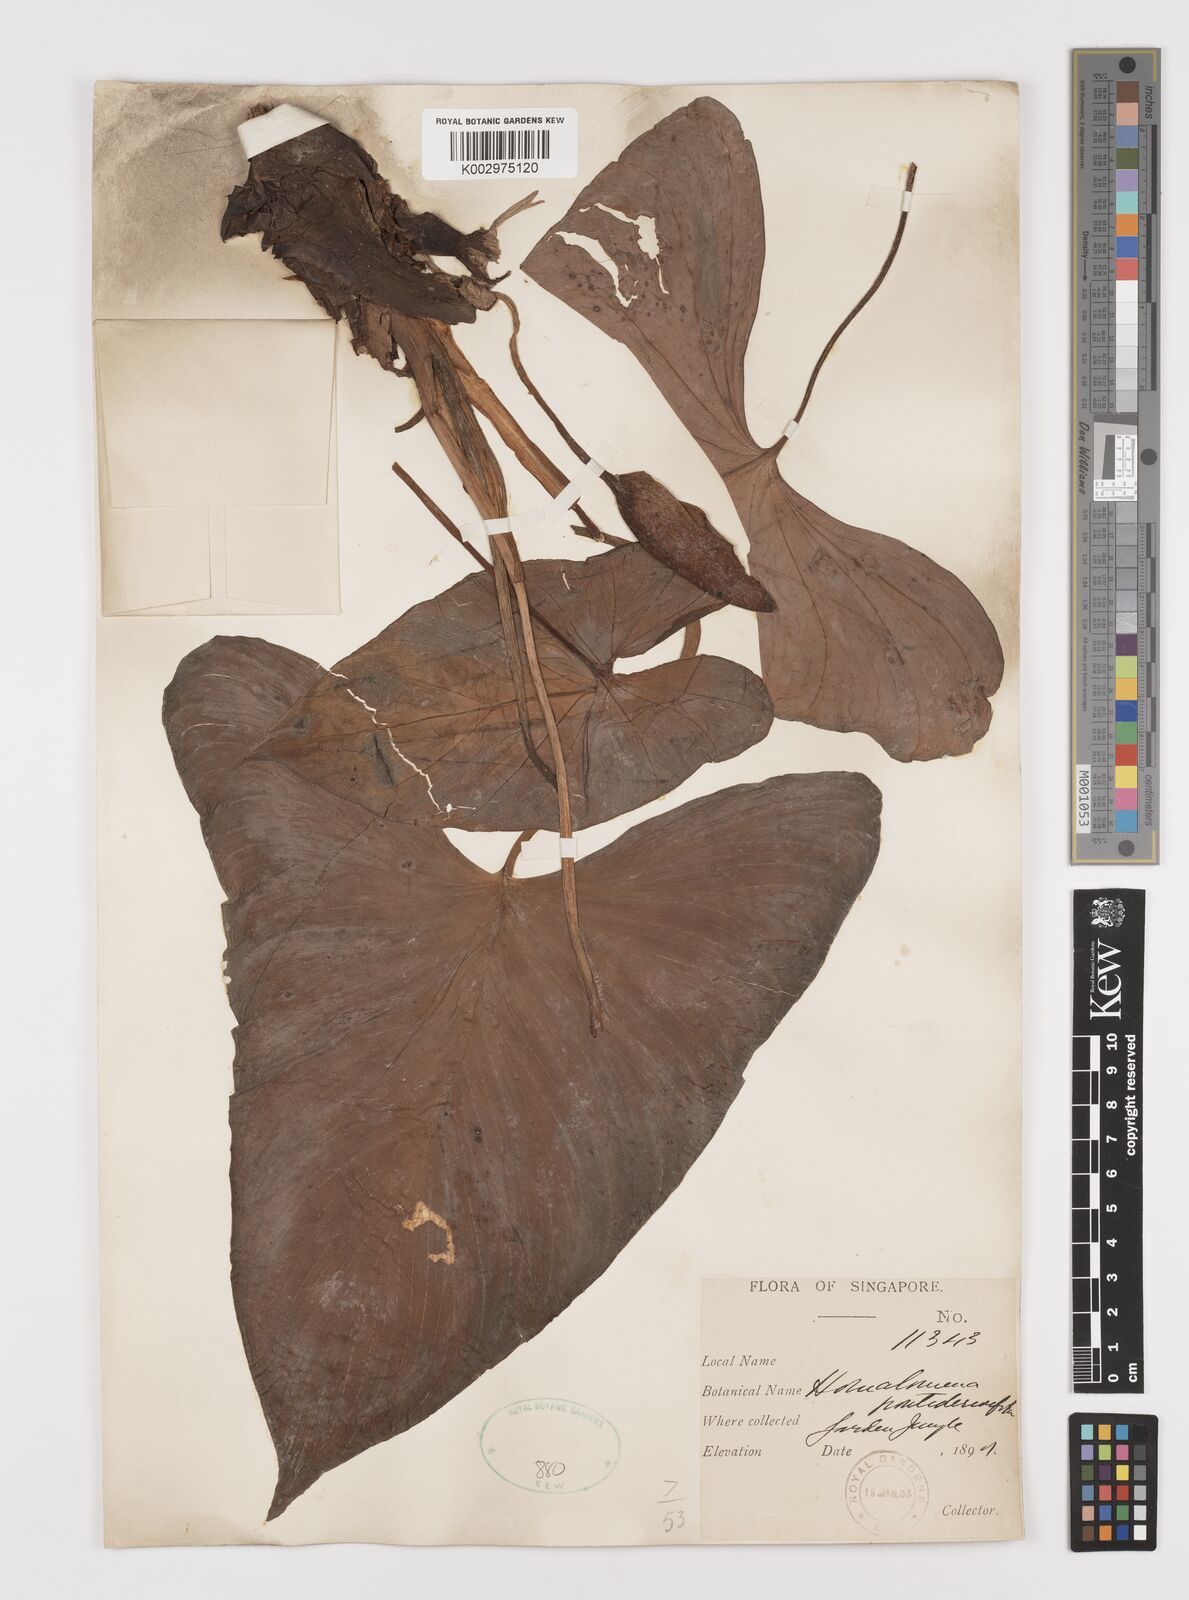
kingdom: Plantae
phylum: Tracheophyta
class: Liliopsida
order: Alismatales
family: Araceae
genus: Homalomena
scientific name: Homalomena pendula
